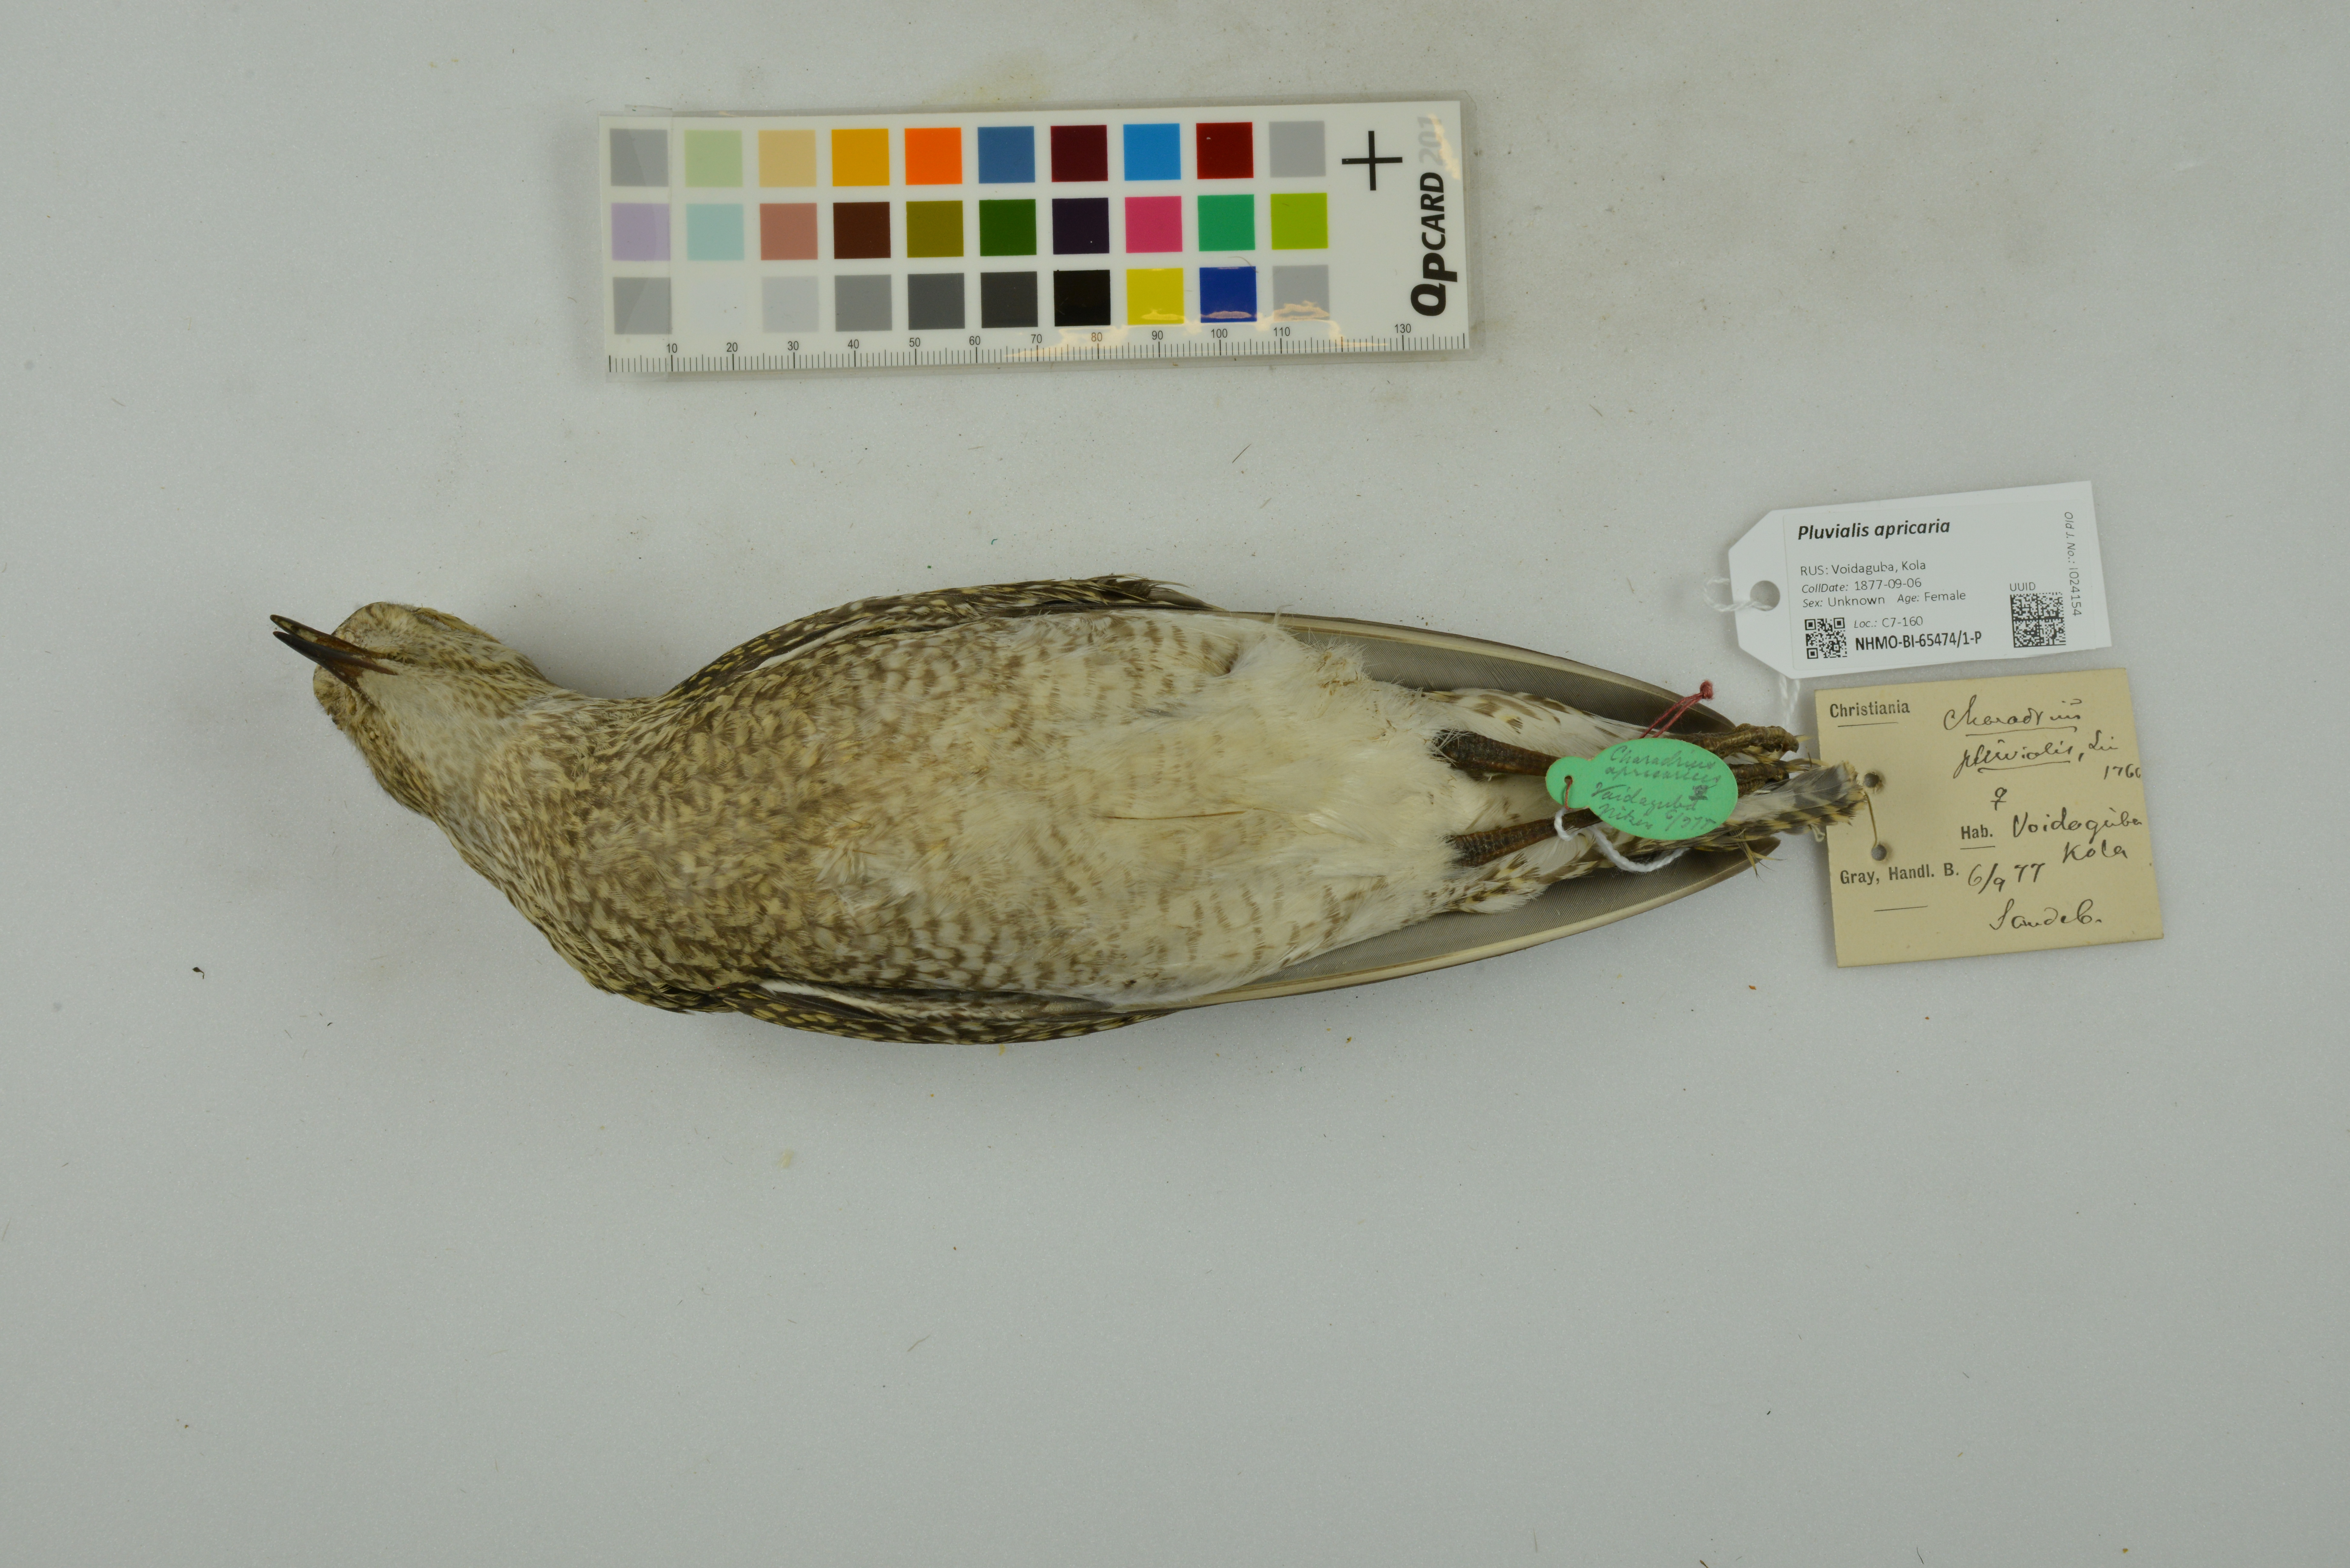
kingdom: Animalia
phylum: Chordata
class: Aves
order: Charadriiformes
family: Charadriidae
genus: Pluvialis
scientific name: Pluvialis apricaria
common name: European golden plover
